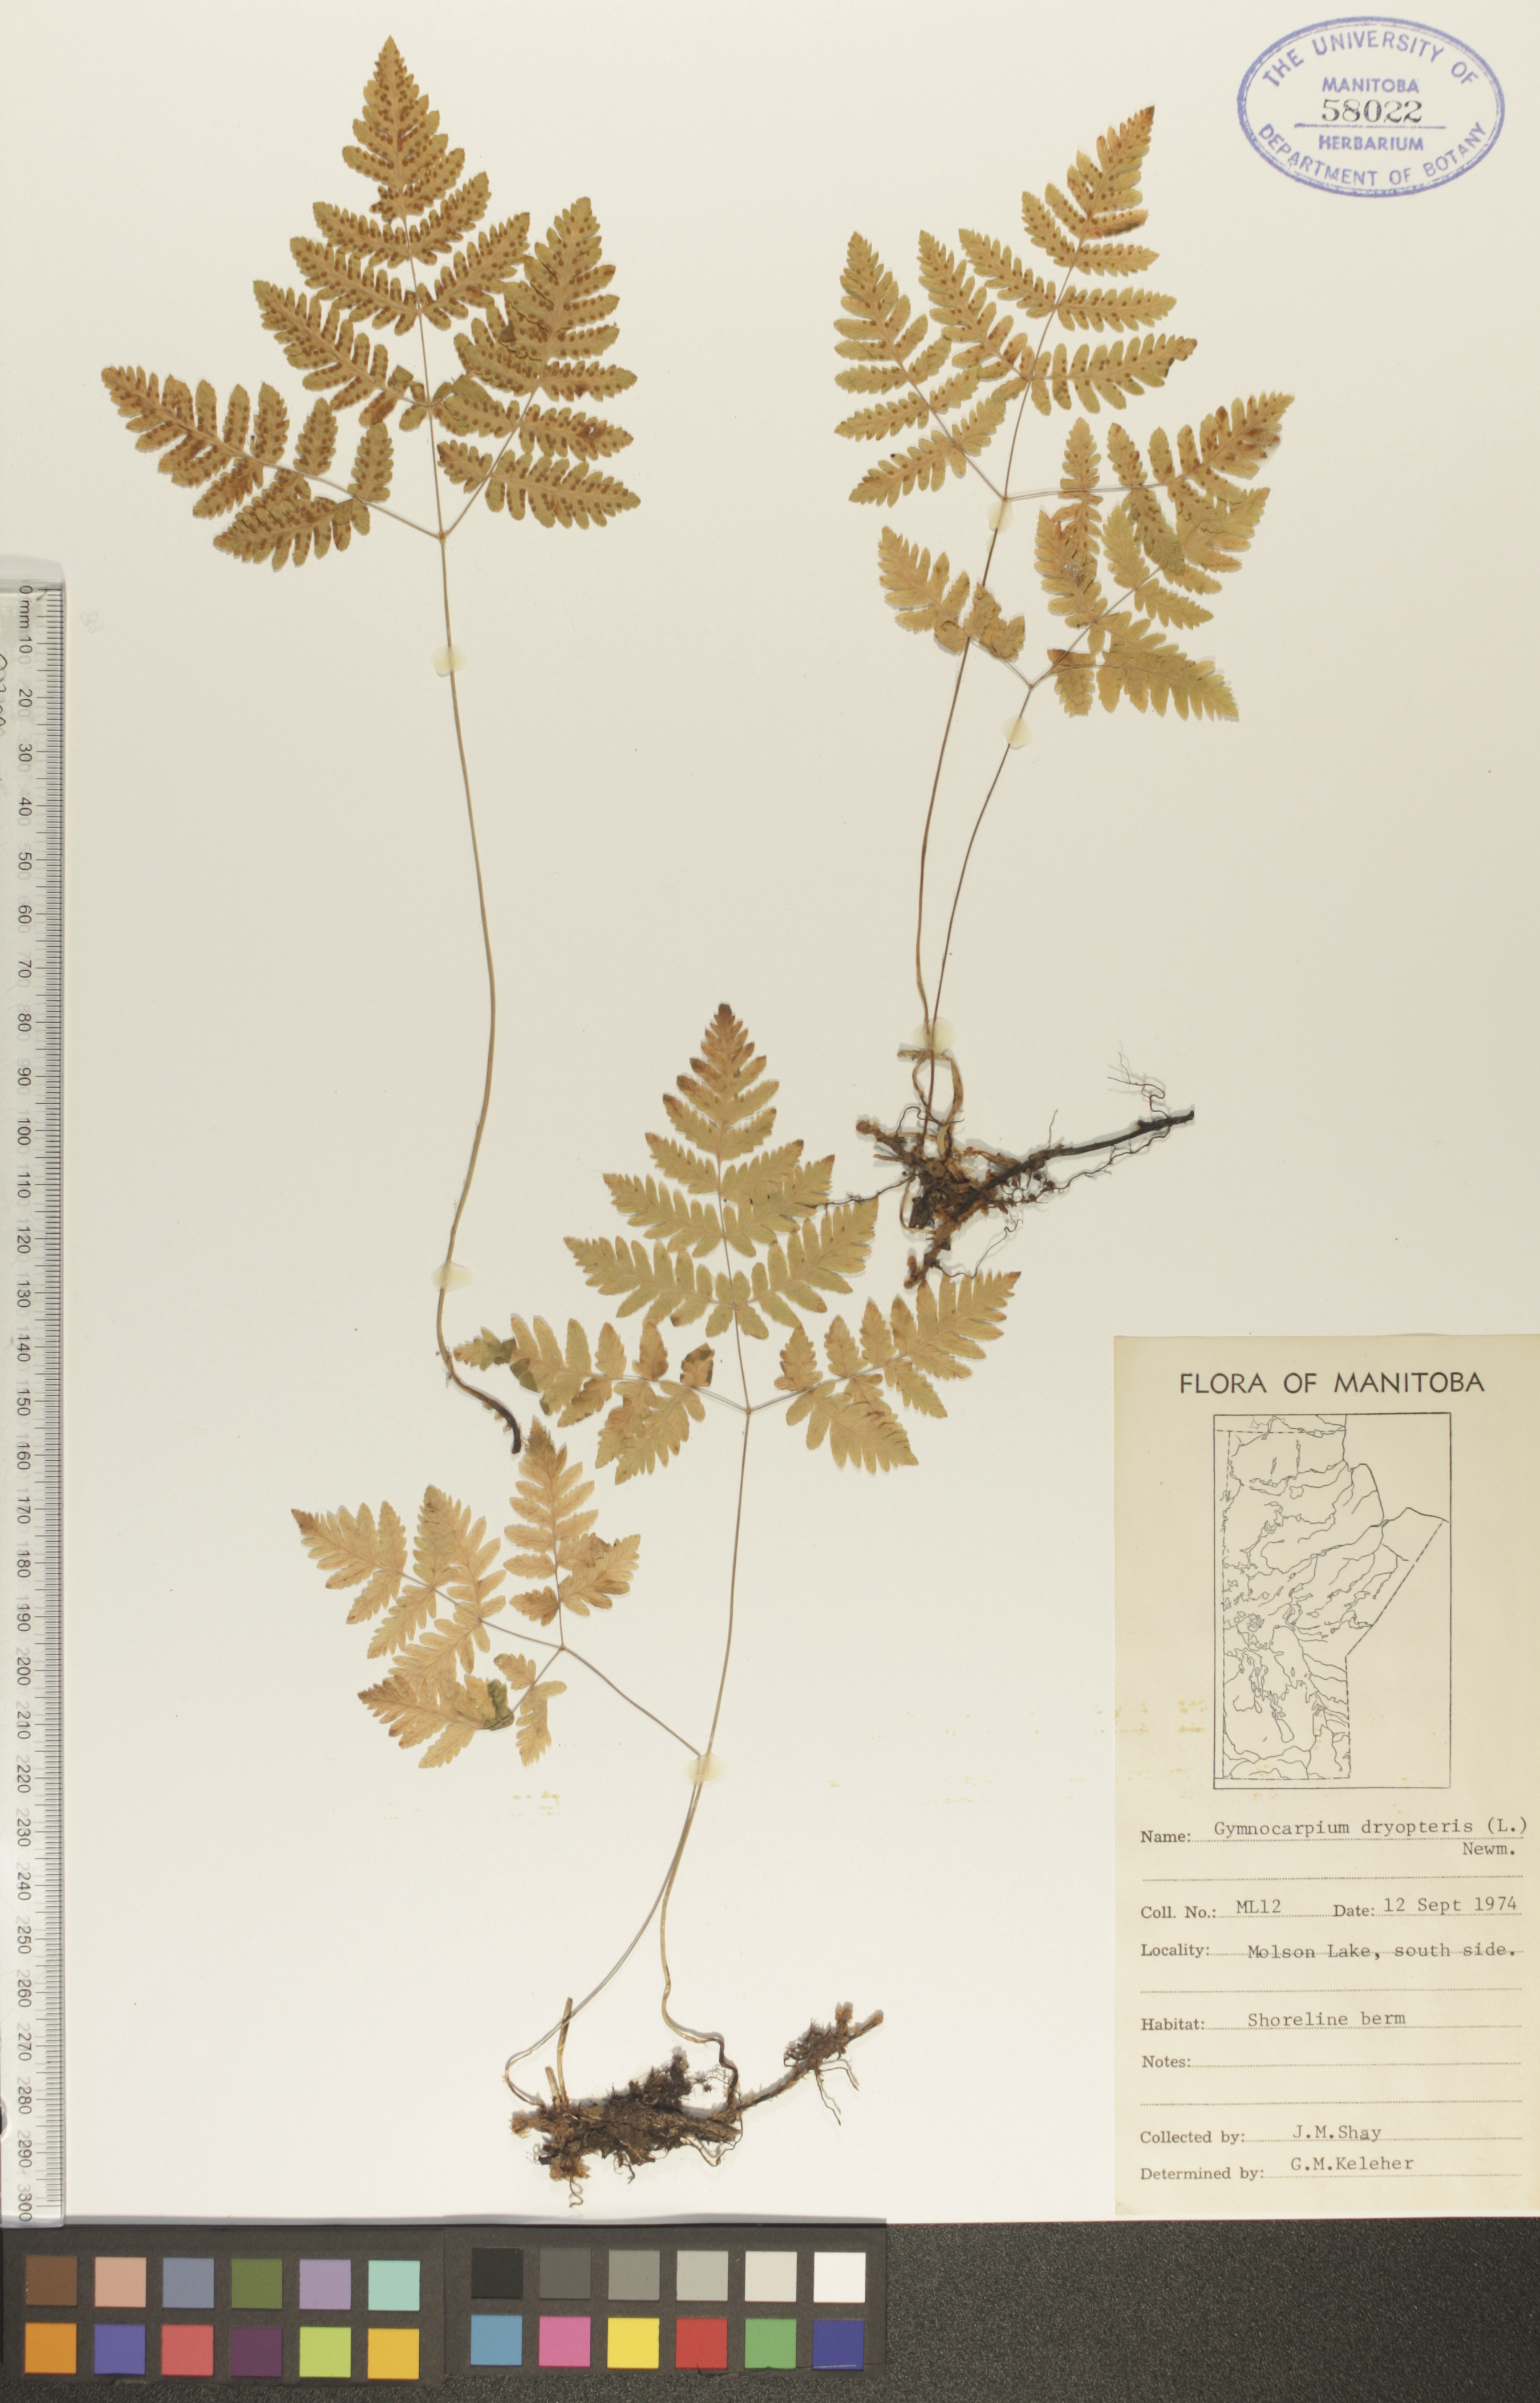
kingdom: Plantae
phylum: Tracheophyta
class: Polypodiopsida
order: Polypodiales
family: Cystopteridaceae
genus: Gymnocarpium
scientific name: Gymnocarpium dryopteris
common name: Oak fern
